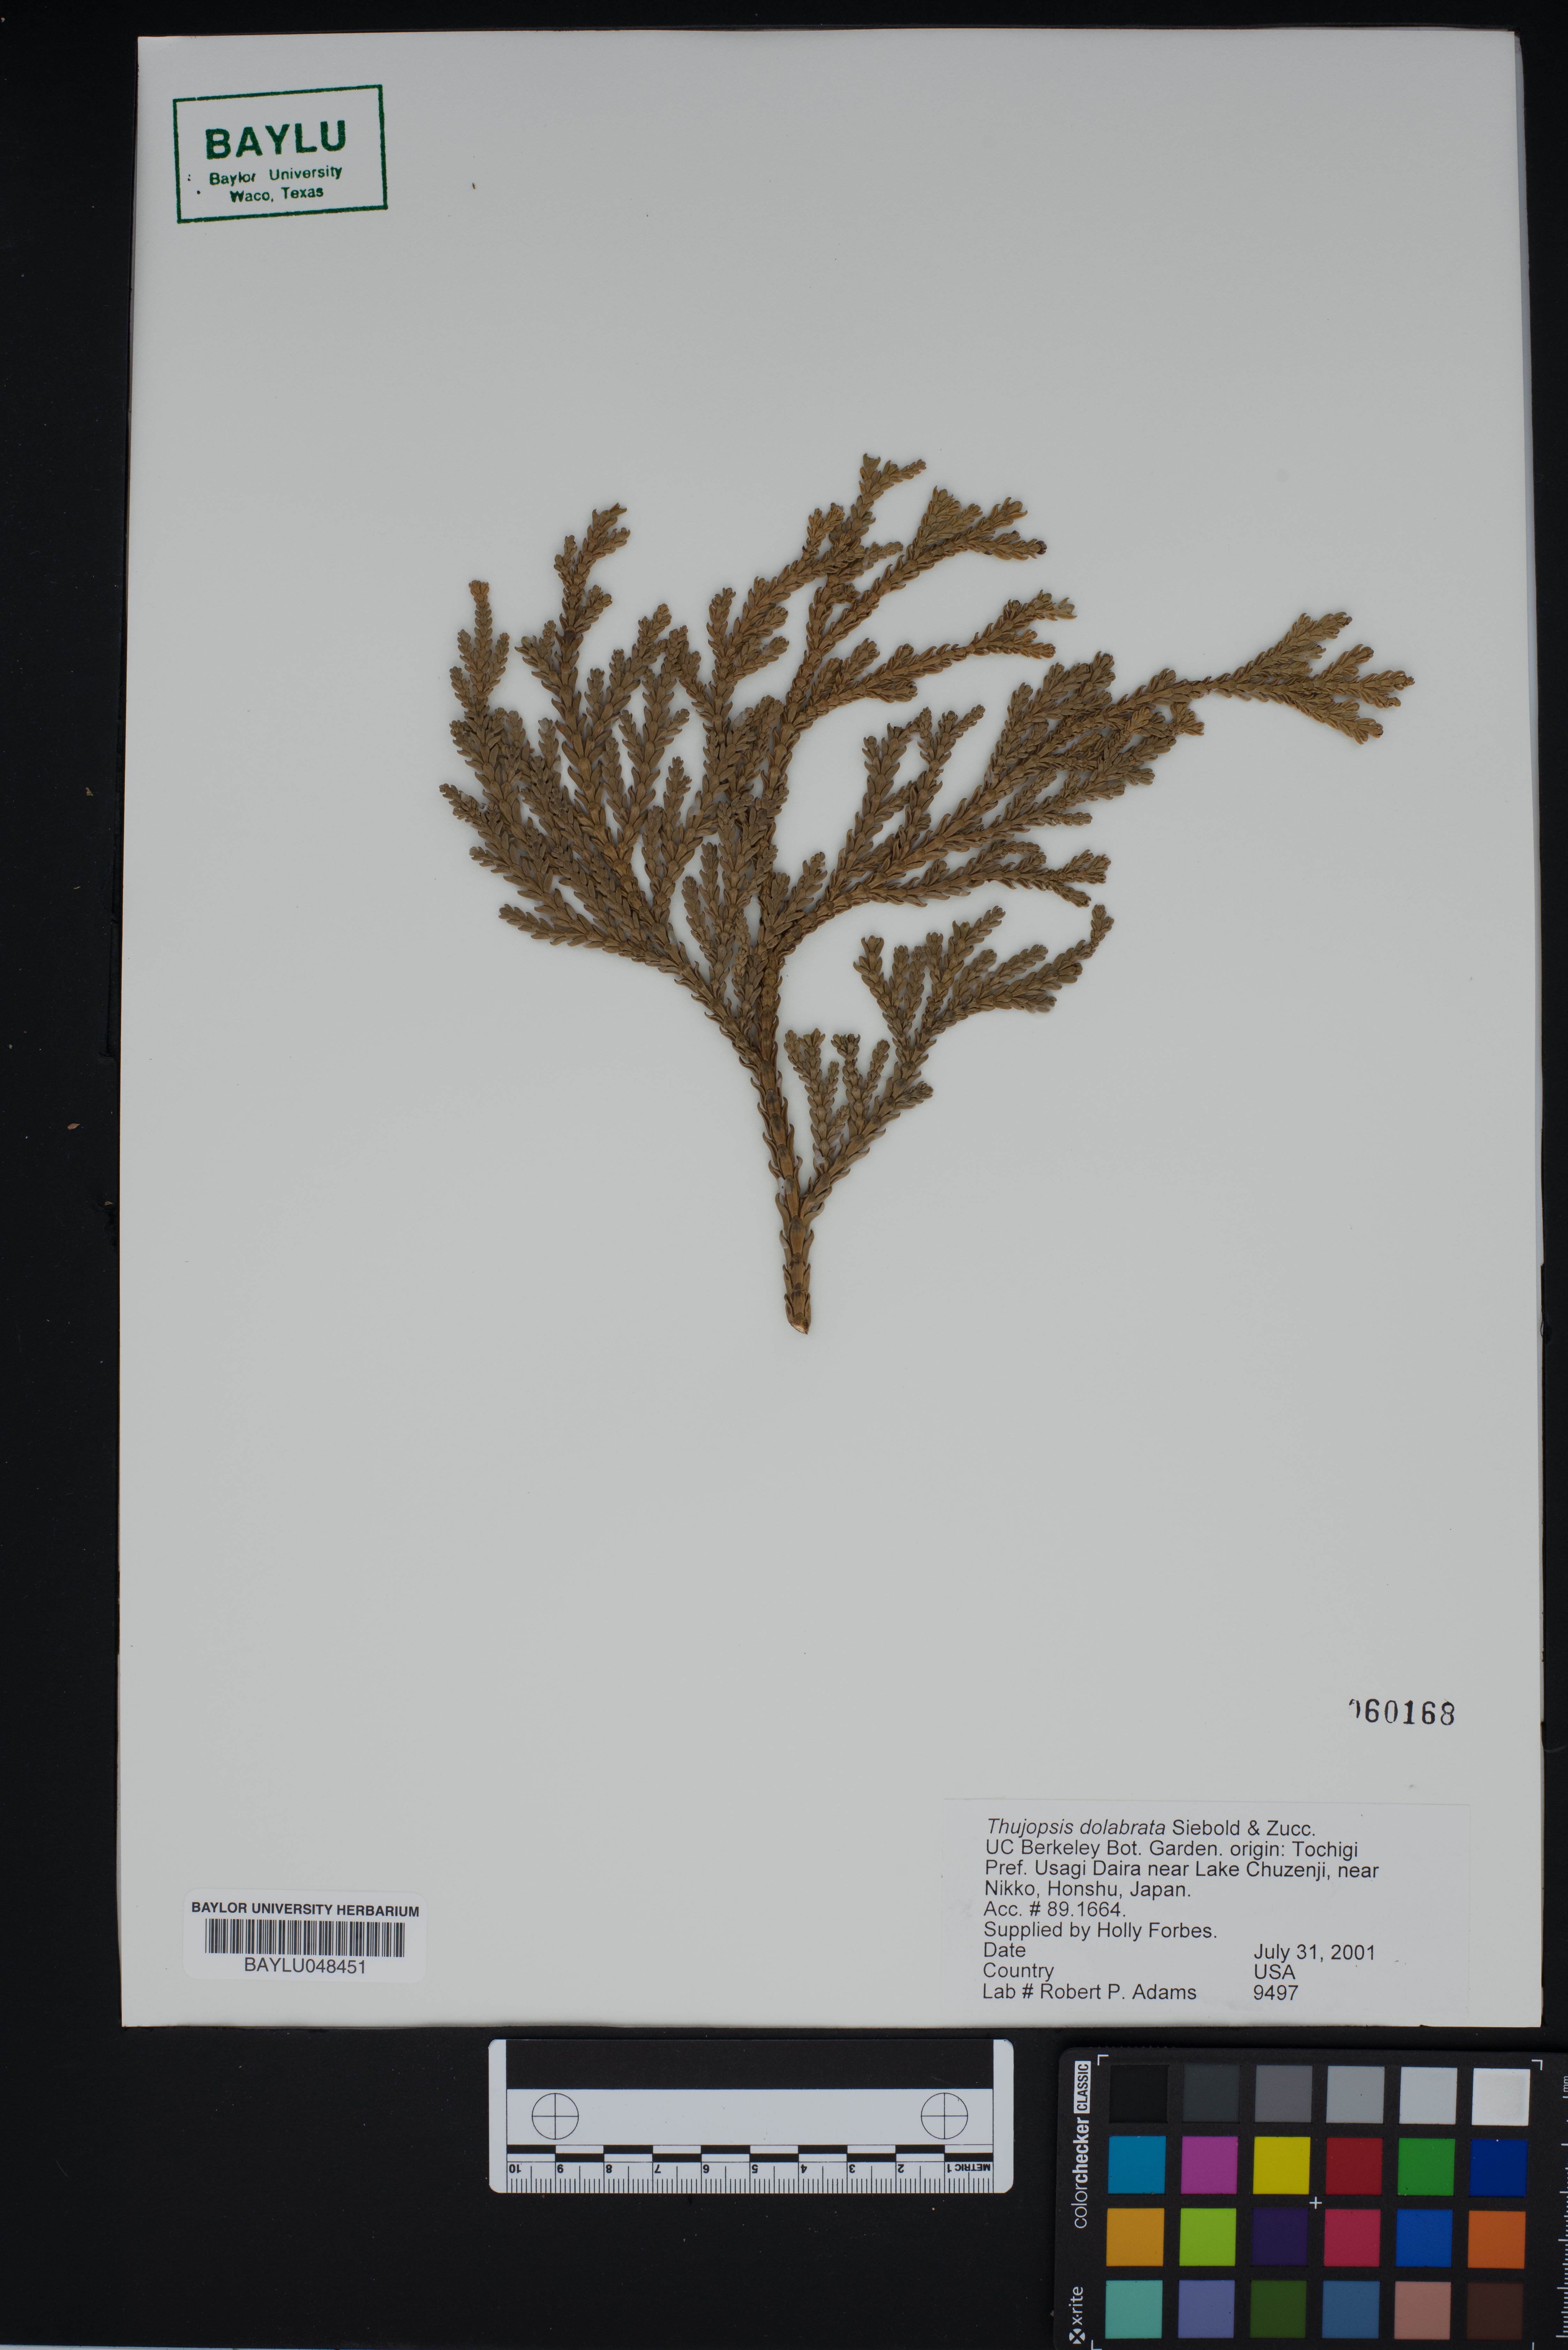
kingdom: Plantae
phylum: Tracheophyta
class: Pinopsida
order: Pinales
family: Cupressaceae
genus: Thujopsis
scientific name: Thujopsis dolabrata
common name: Hiba
